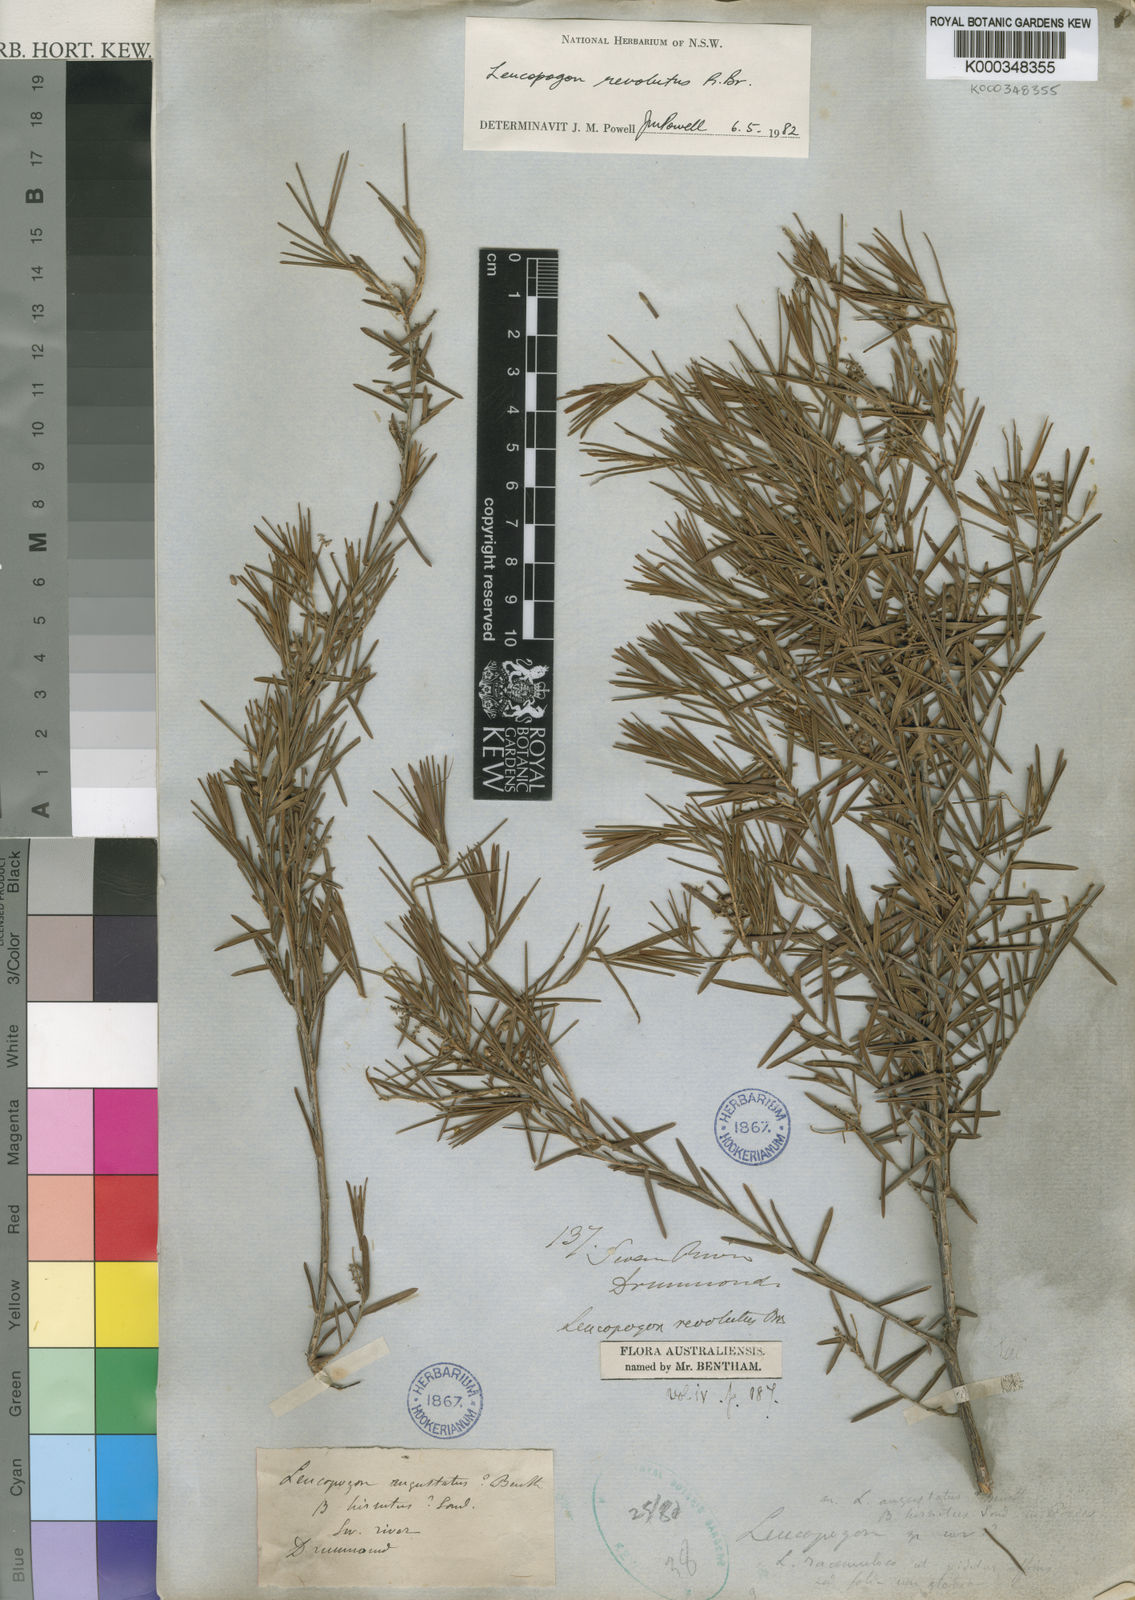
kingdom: Plantae
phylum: Tracheophyta
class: Magnoliopsida
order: Ericales
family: Ericaceae
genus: Leucopogon
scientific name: Leucopogon obovatus
